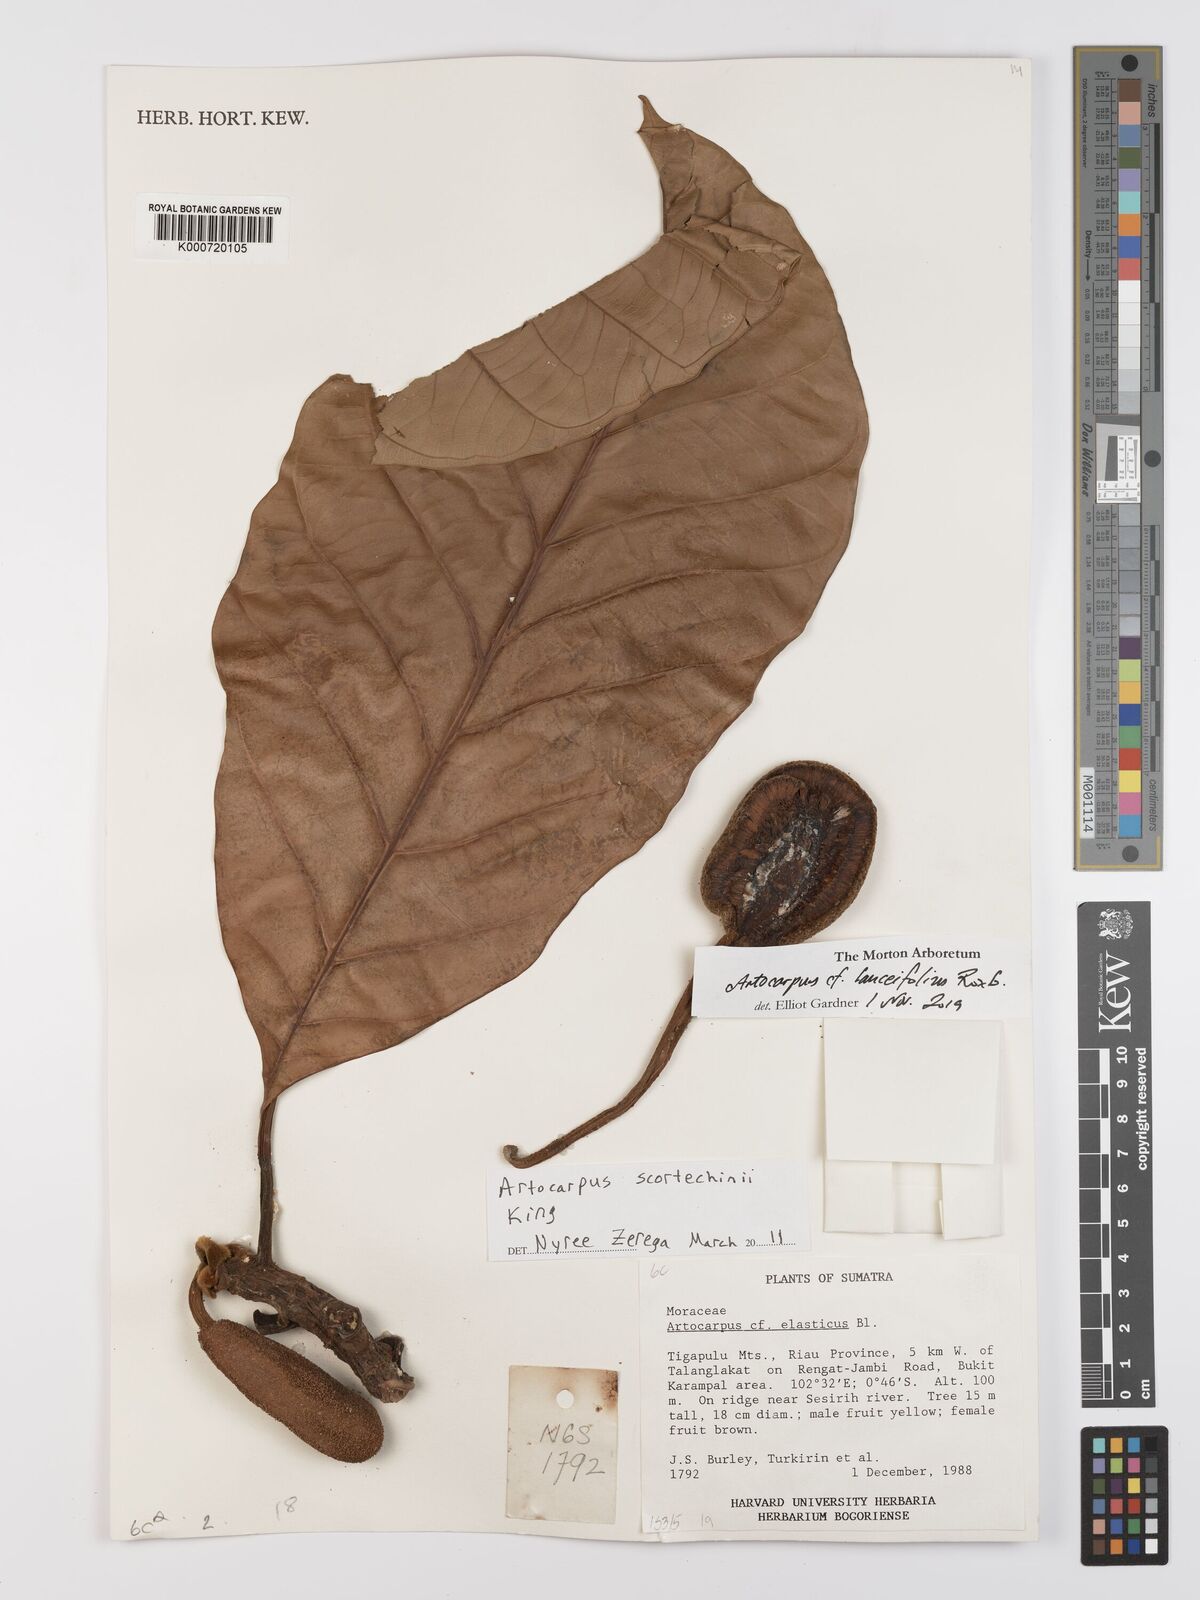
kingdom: Plantae
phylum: Tracheophyta
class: Magnoliopsida
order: Rosales
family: Moraceae
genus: Artocarpus
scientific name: Artocarpus elasticus
